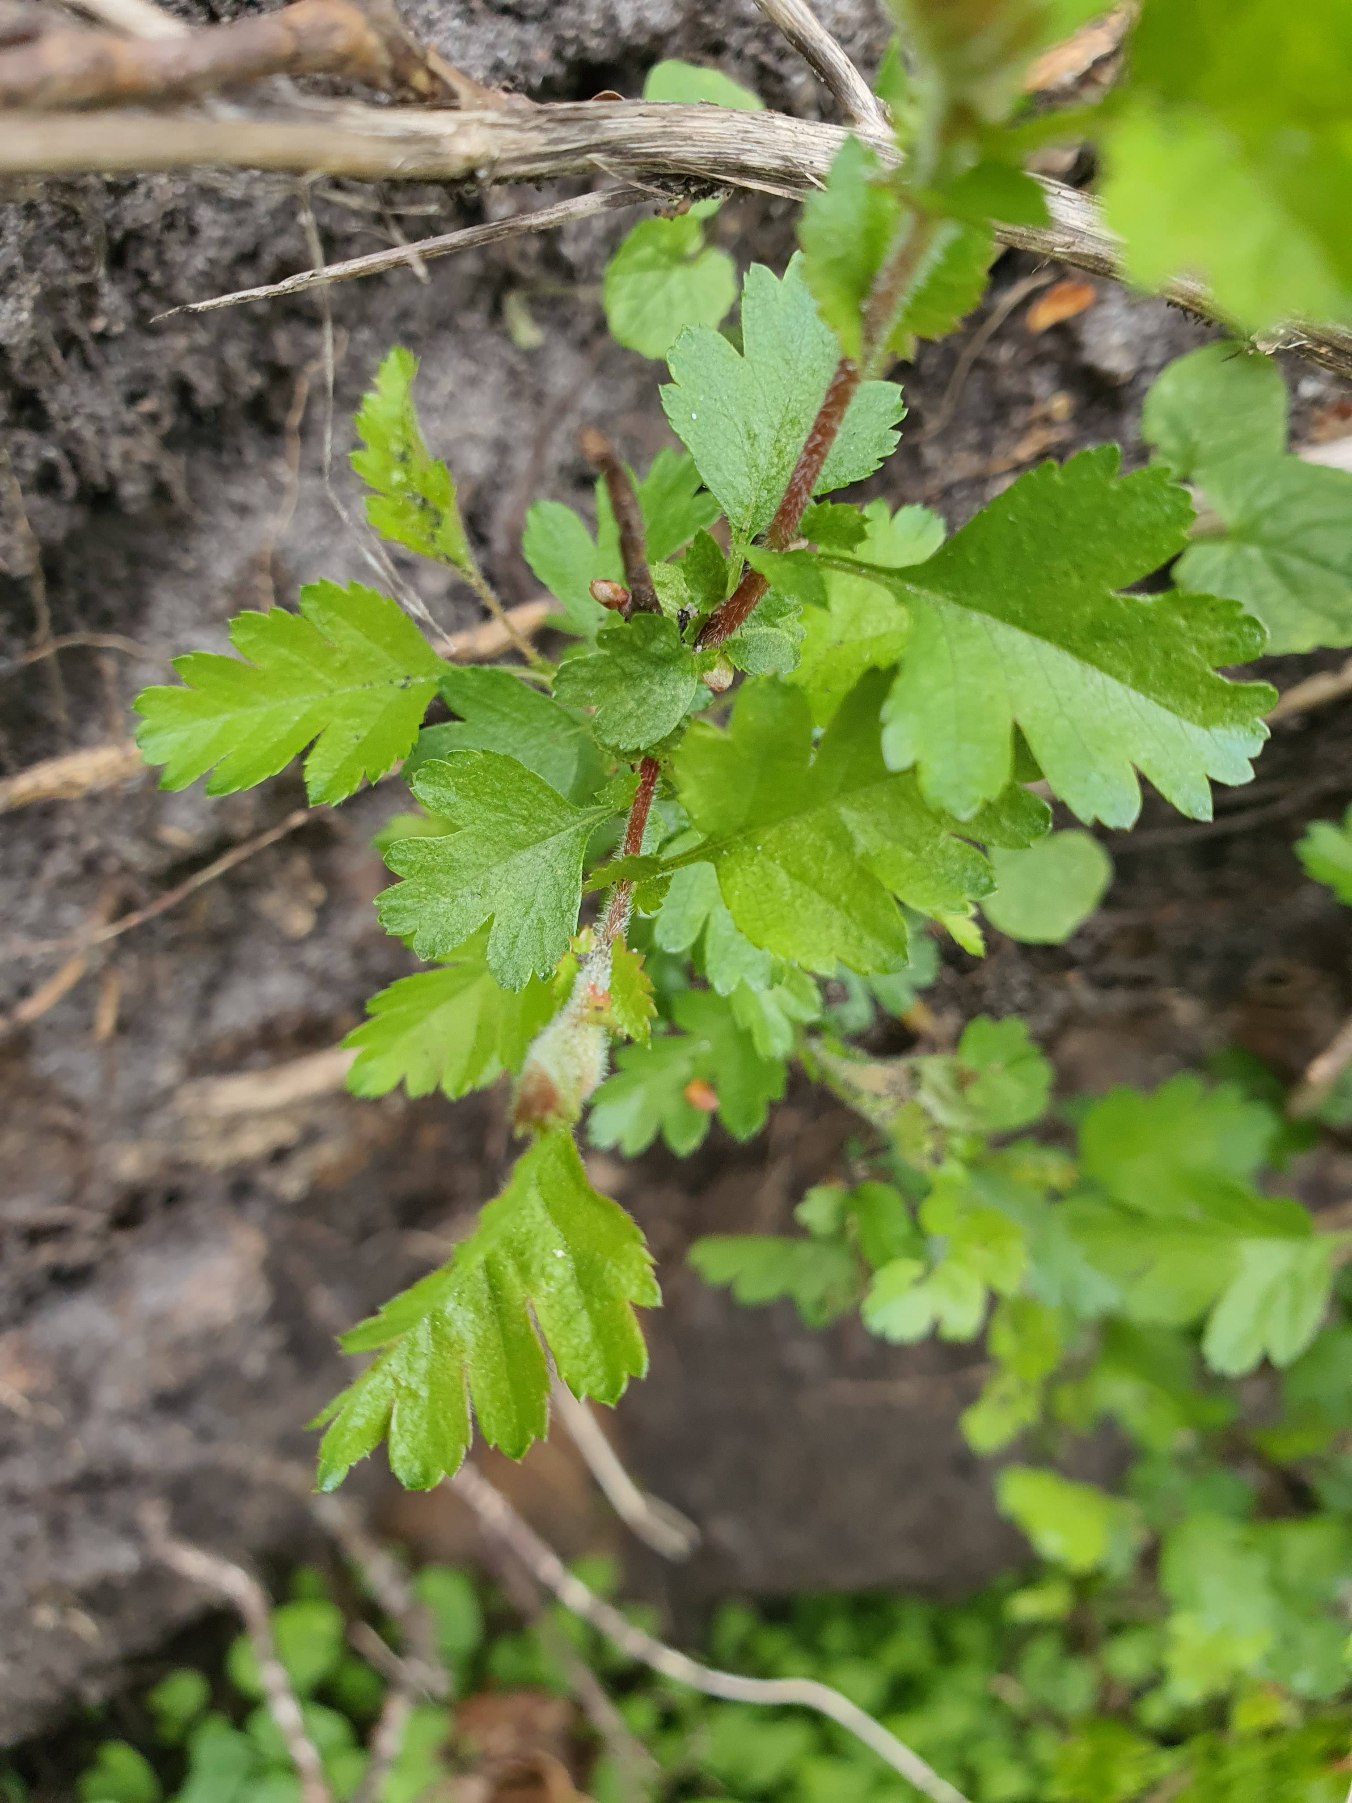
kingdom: Plantae
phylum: Tracheophyta
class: Magnoliopsida
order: Rosales
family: Rosaceae
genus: Crataegus
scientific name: Crataegus monogyna
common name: Engriflet hvidtjørn
